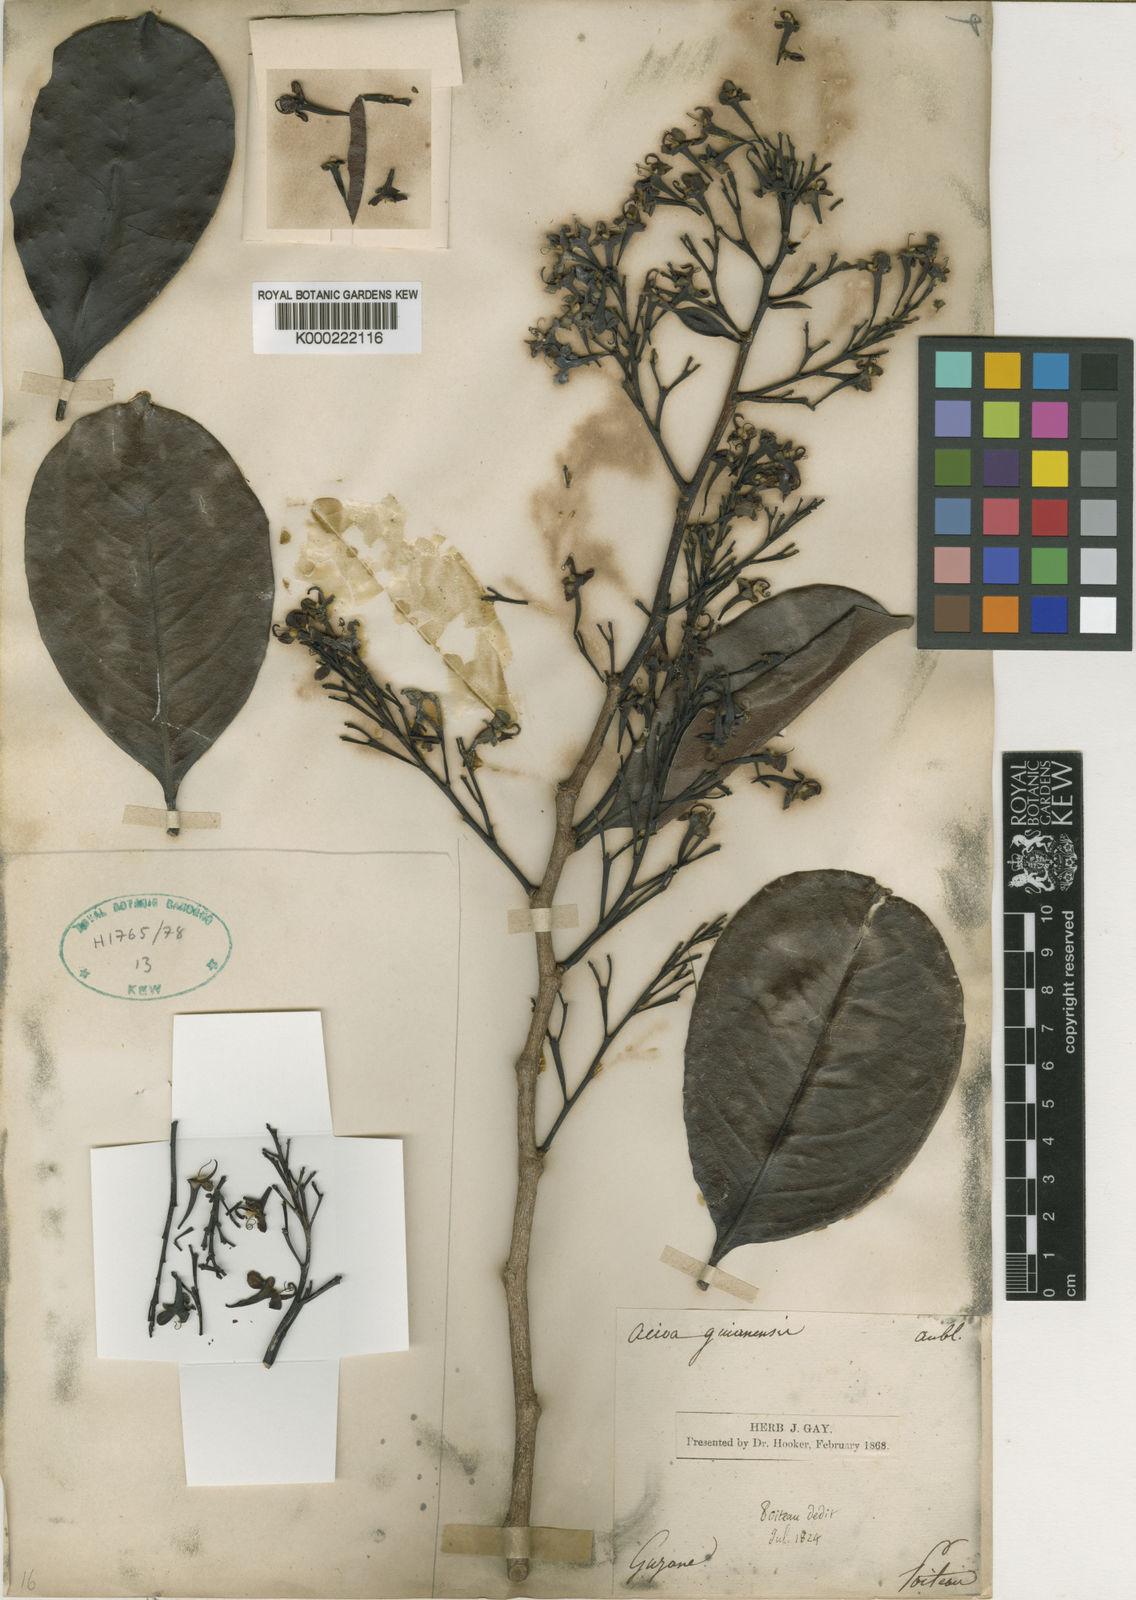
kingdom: Plantae
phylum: Tracheophyta
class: Magnoliopsida
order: Malpighiales
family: Chrysobalanaceae
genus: Acioa
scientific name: Acioa guianensis
